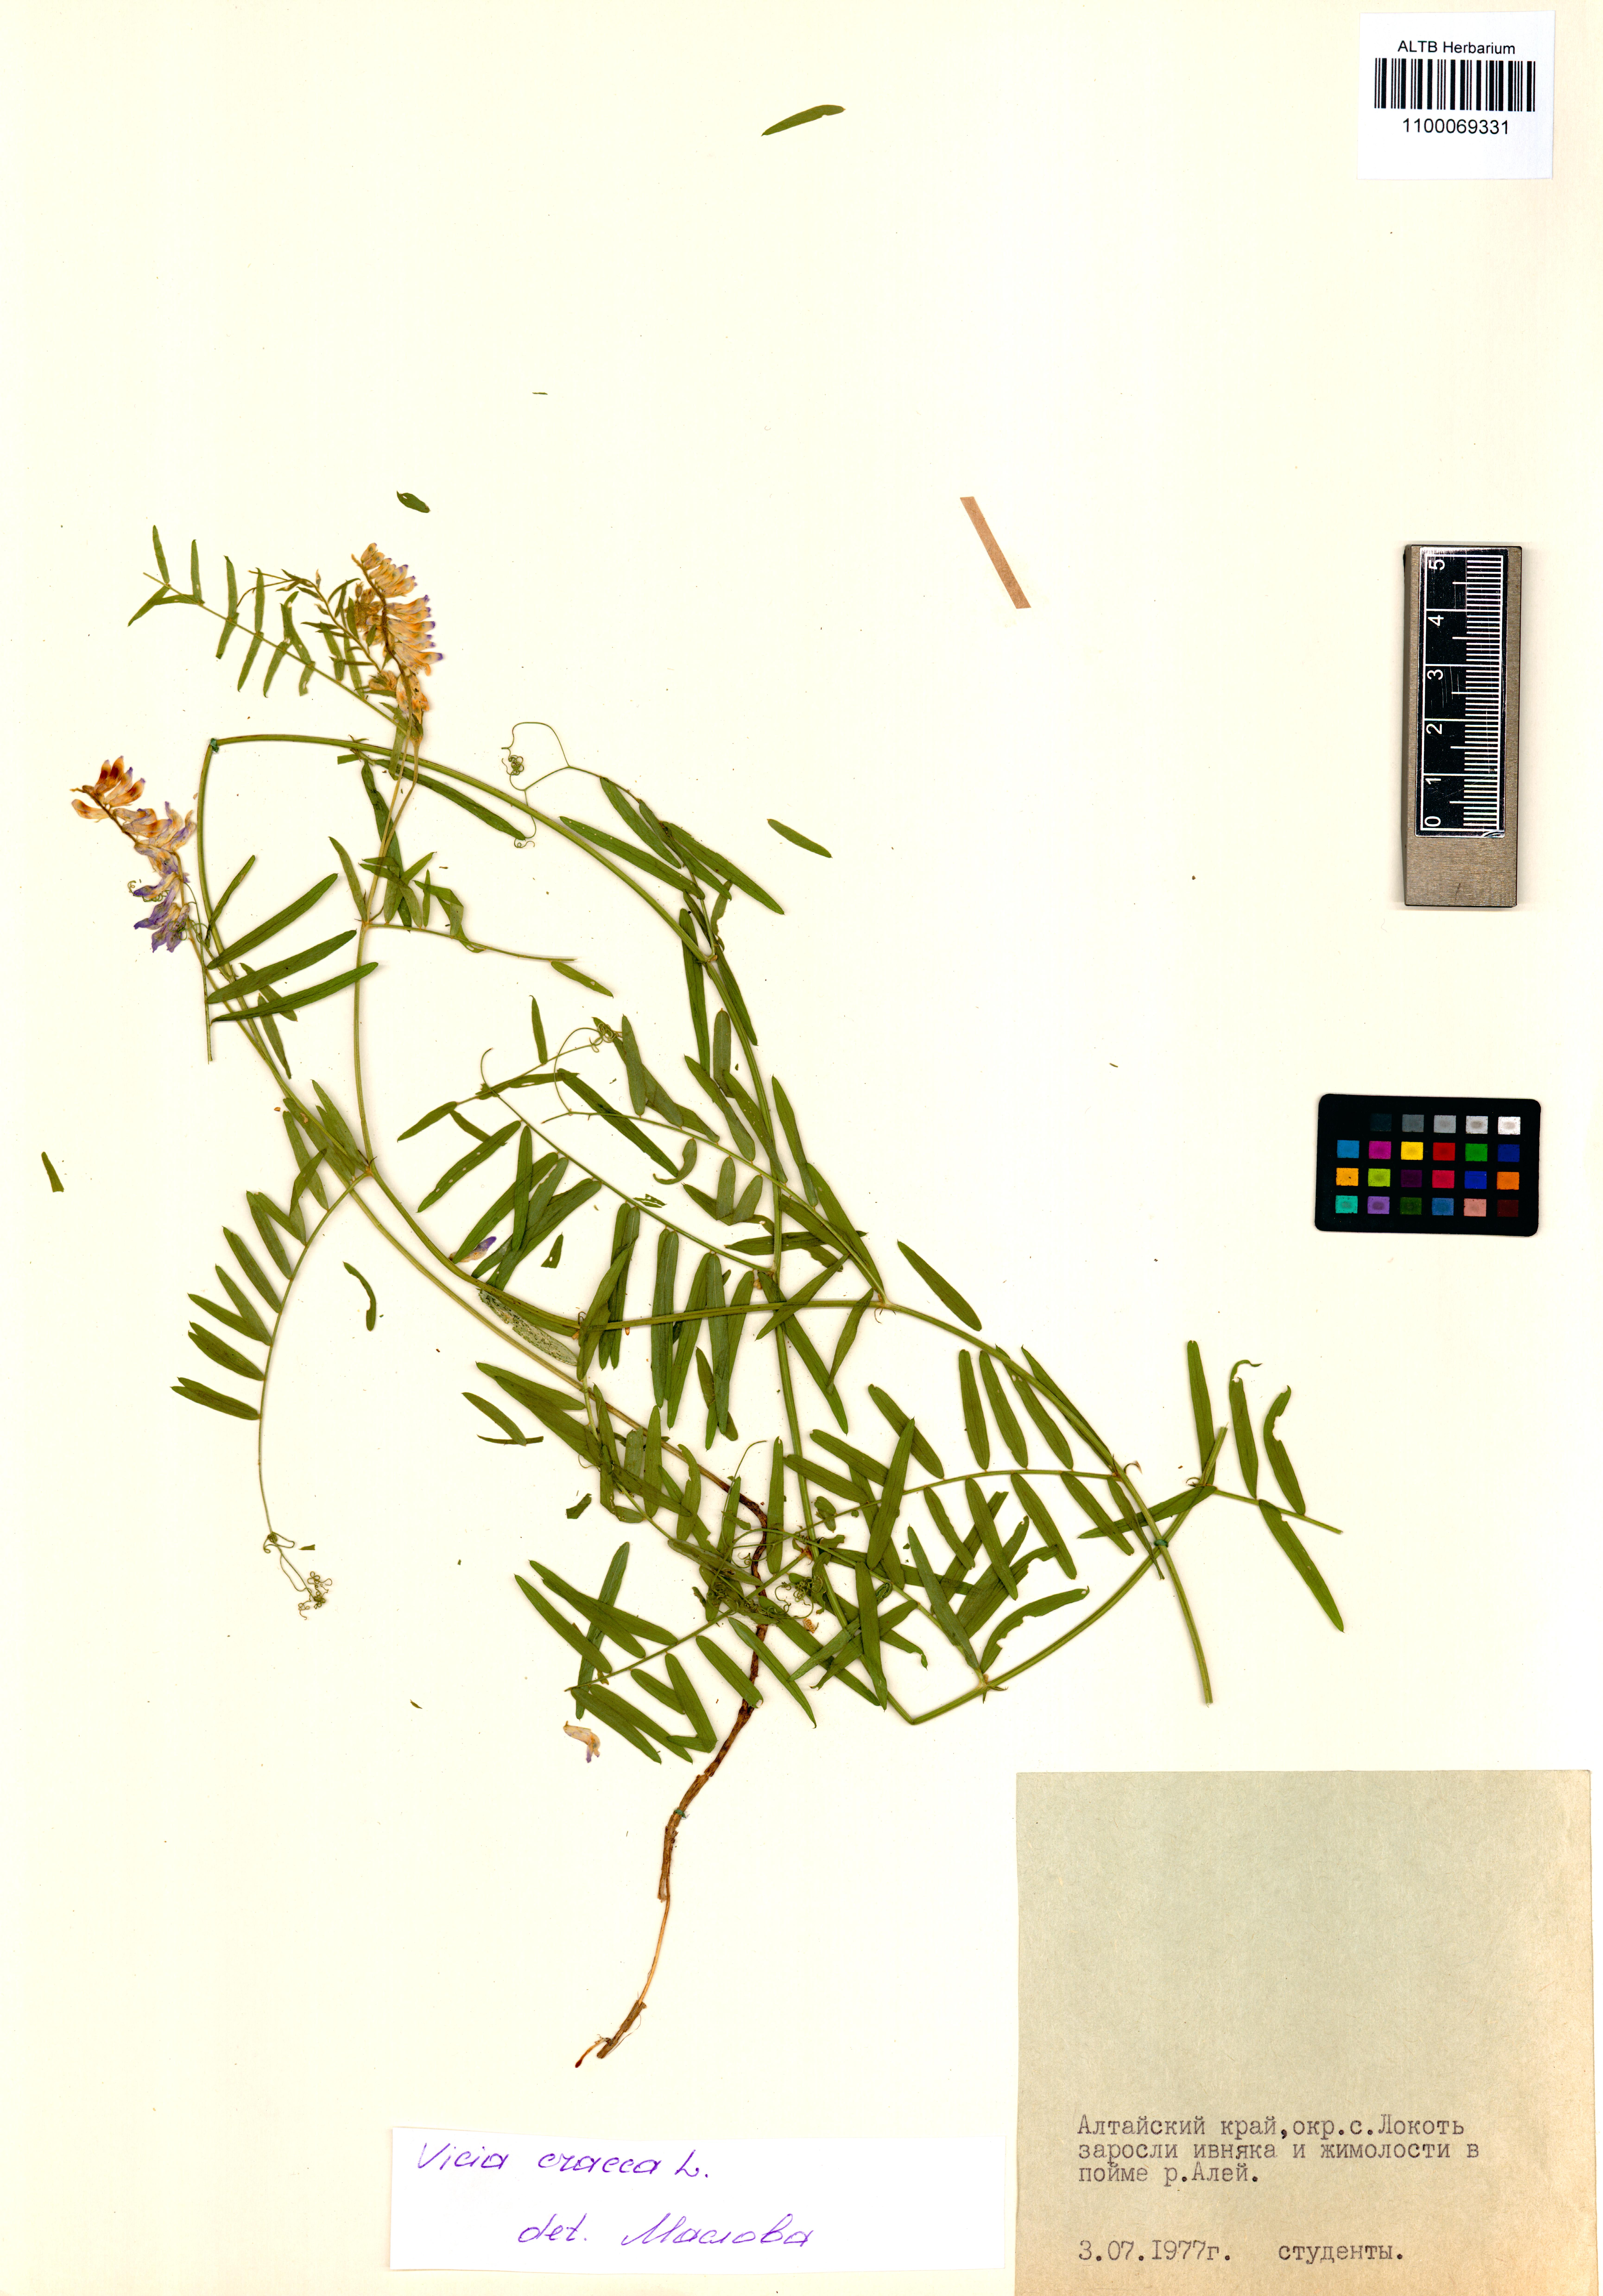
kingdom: Plantae
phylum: Tracheophyta
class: Magnoliopsida
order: Fabales
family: Fabaceae
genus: Vicia
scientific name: Vicia cracca
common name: Bird vetch
